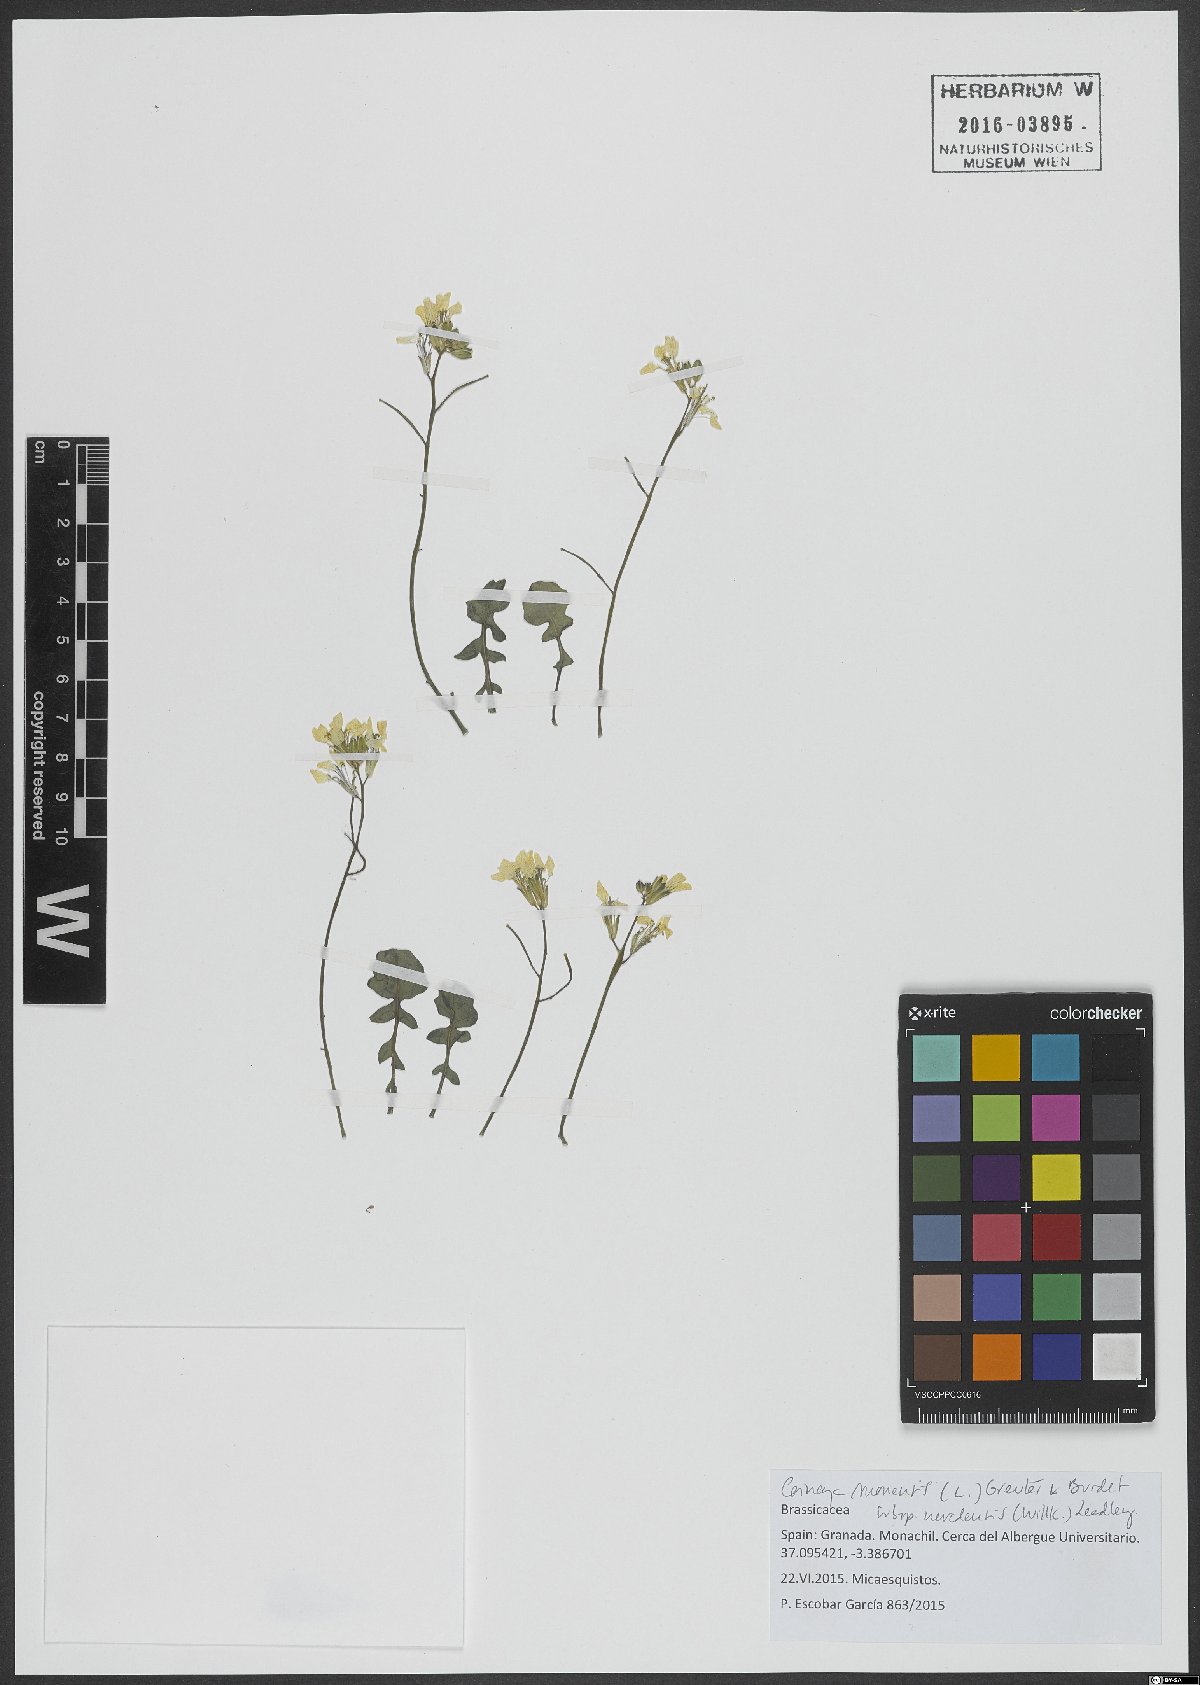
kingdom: Plantae
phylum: Tracheophyta
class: Magnoliopsida
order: Brassicales
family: Brassicaceae
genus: Coincya
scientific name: Coincya monensis
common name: Star-mustard
